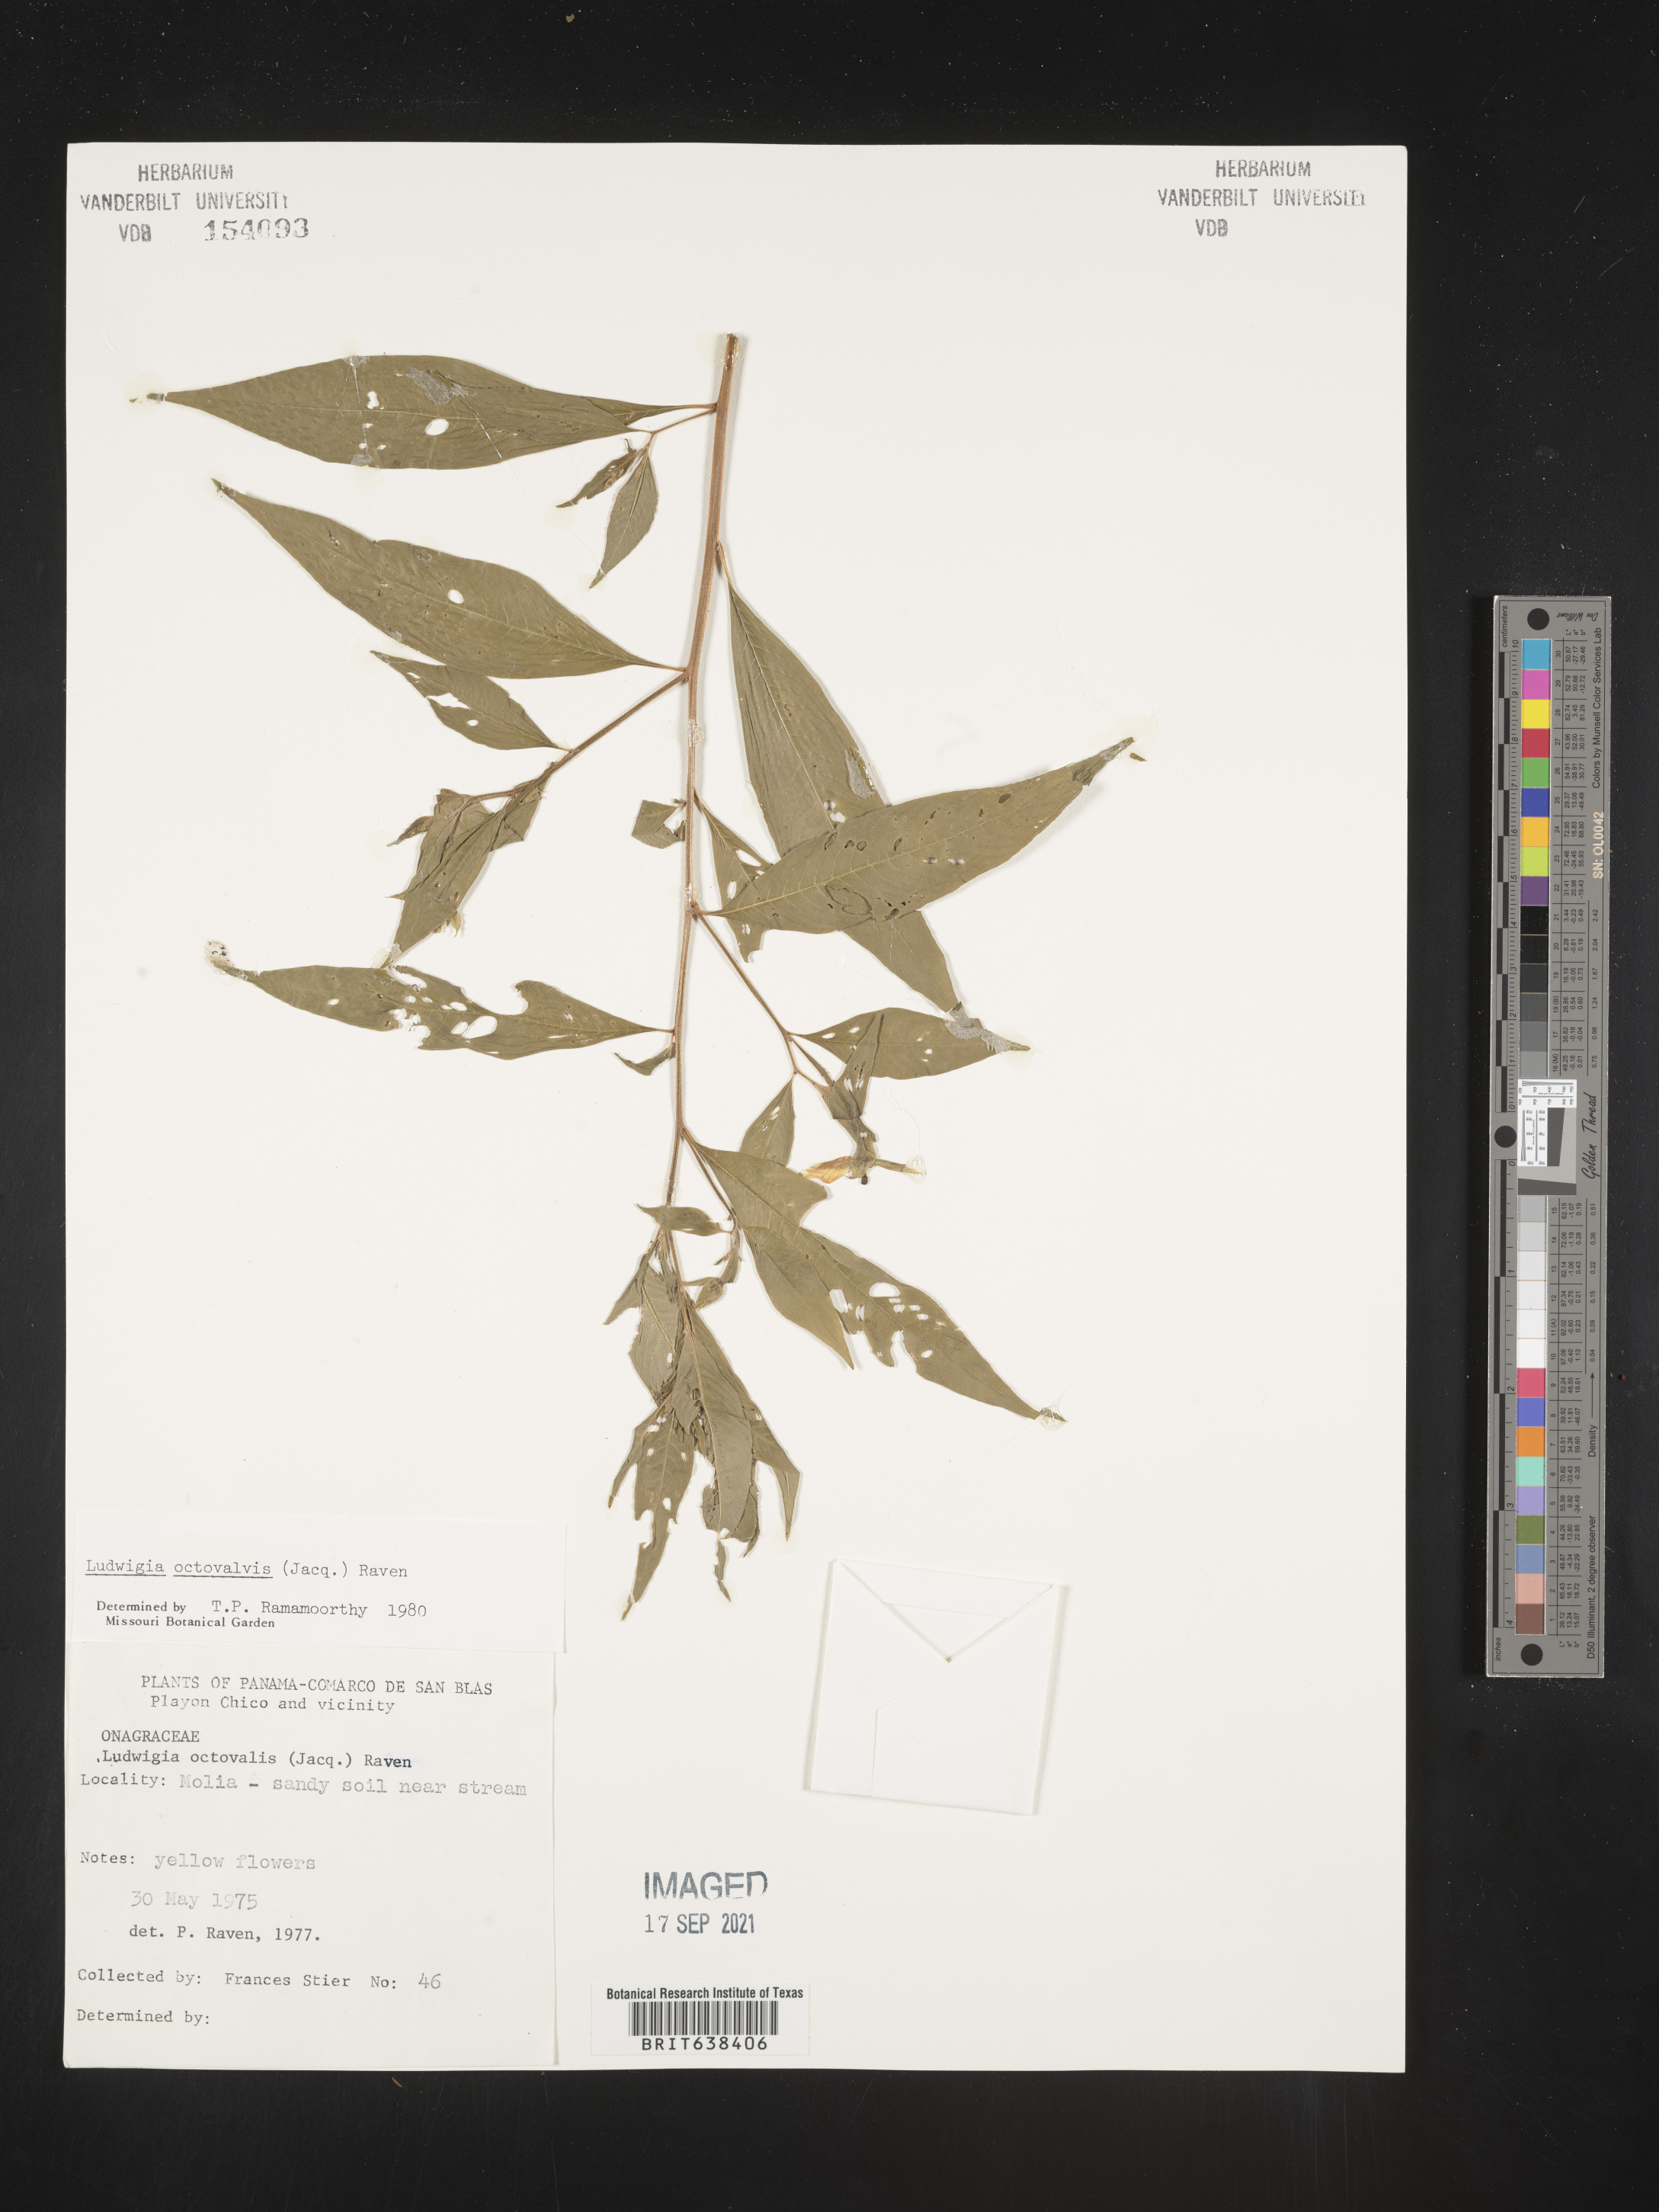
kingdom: Plantae
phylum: Tracheophyta
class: Magnoliopsida
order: Myrtales
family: Onagraceae
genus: Ludwigia
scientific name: Ludwigia
